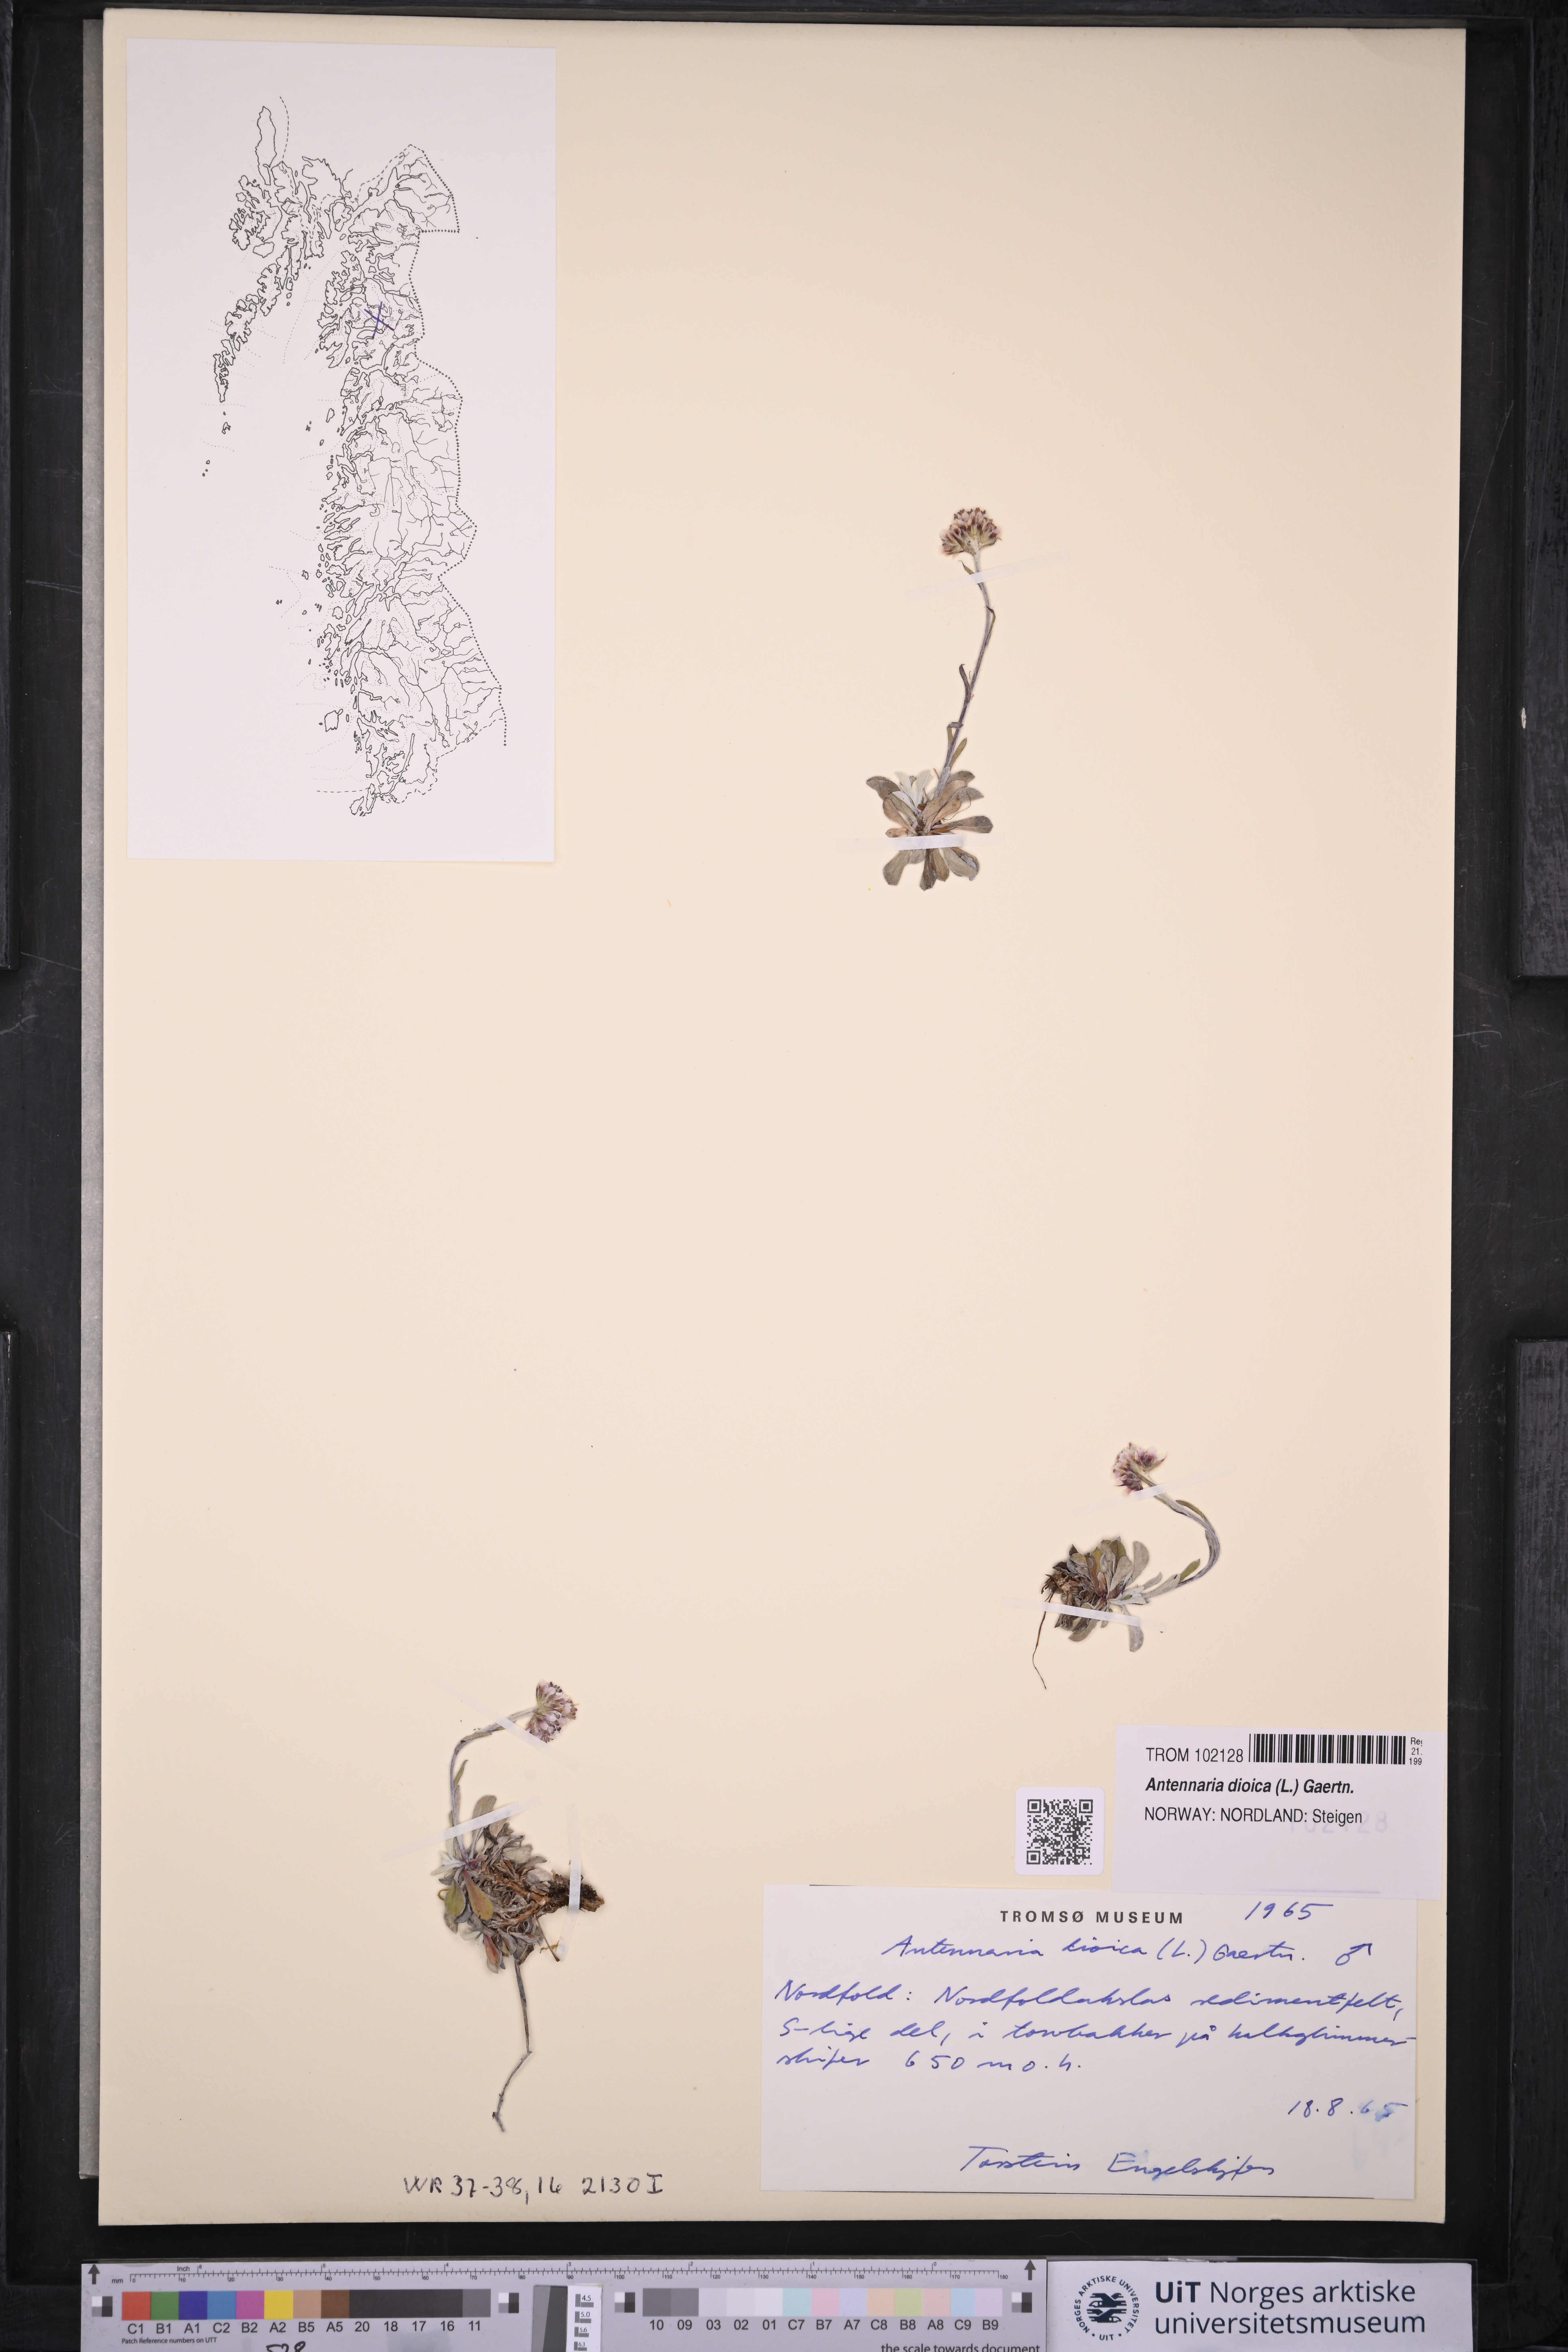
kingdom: Plantae
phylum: Tracheophyta
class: Magnoliopsida
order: Asterales
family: Asteraceae
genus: Antennaria
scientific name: Antennaria dioica
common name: Mountain everlasting
